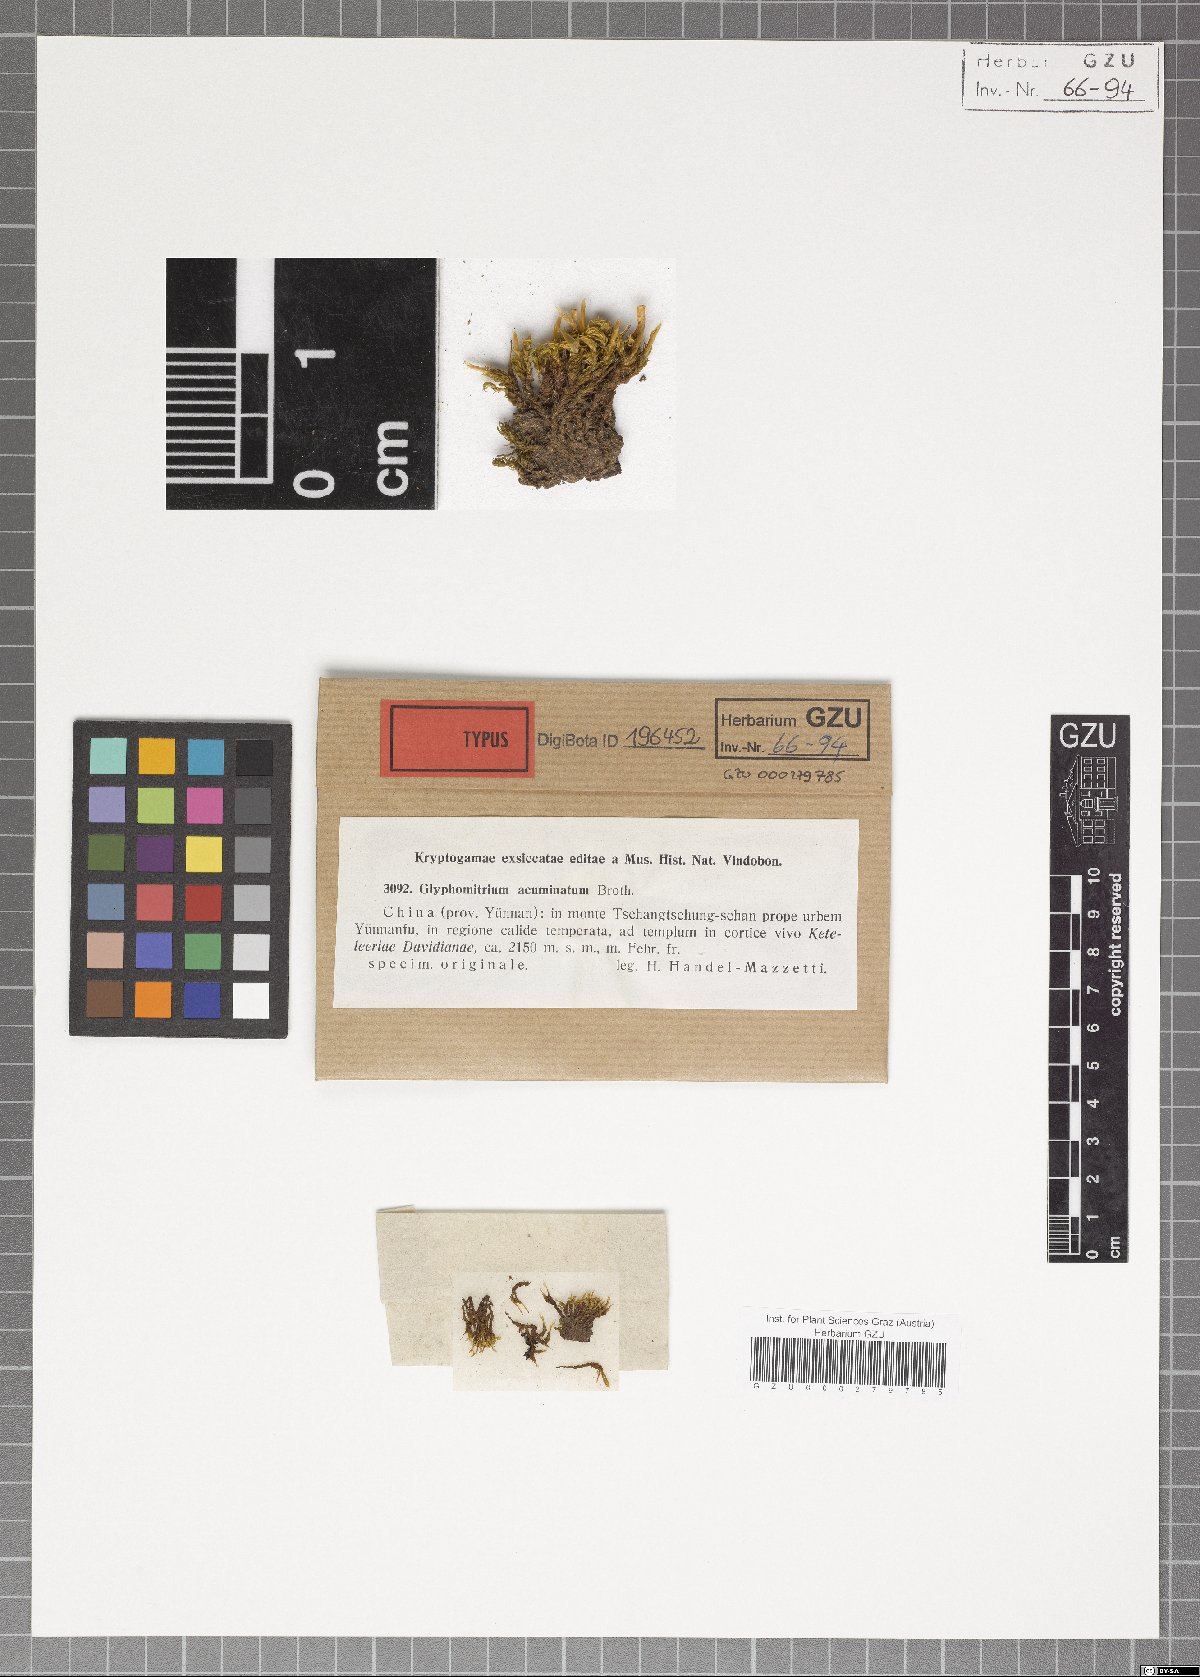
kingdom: Plantae
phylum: Bryophyta
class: Bryopsida
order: Dicranales
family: Rhabdoweisiaceae
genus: Glyphomitrium
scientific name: Glyphomitrium acuminatum
